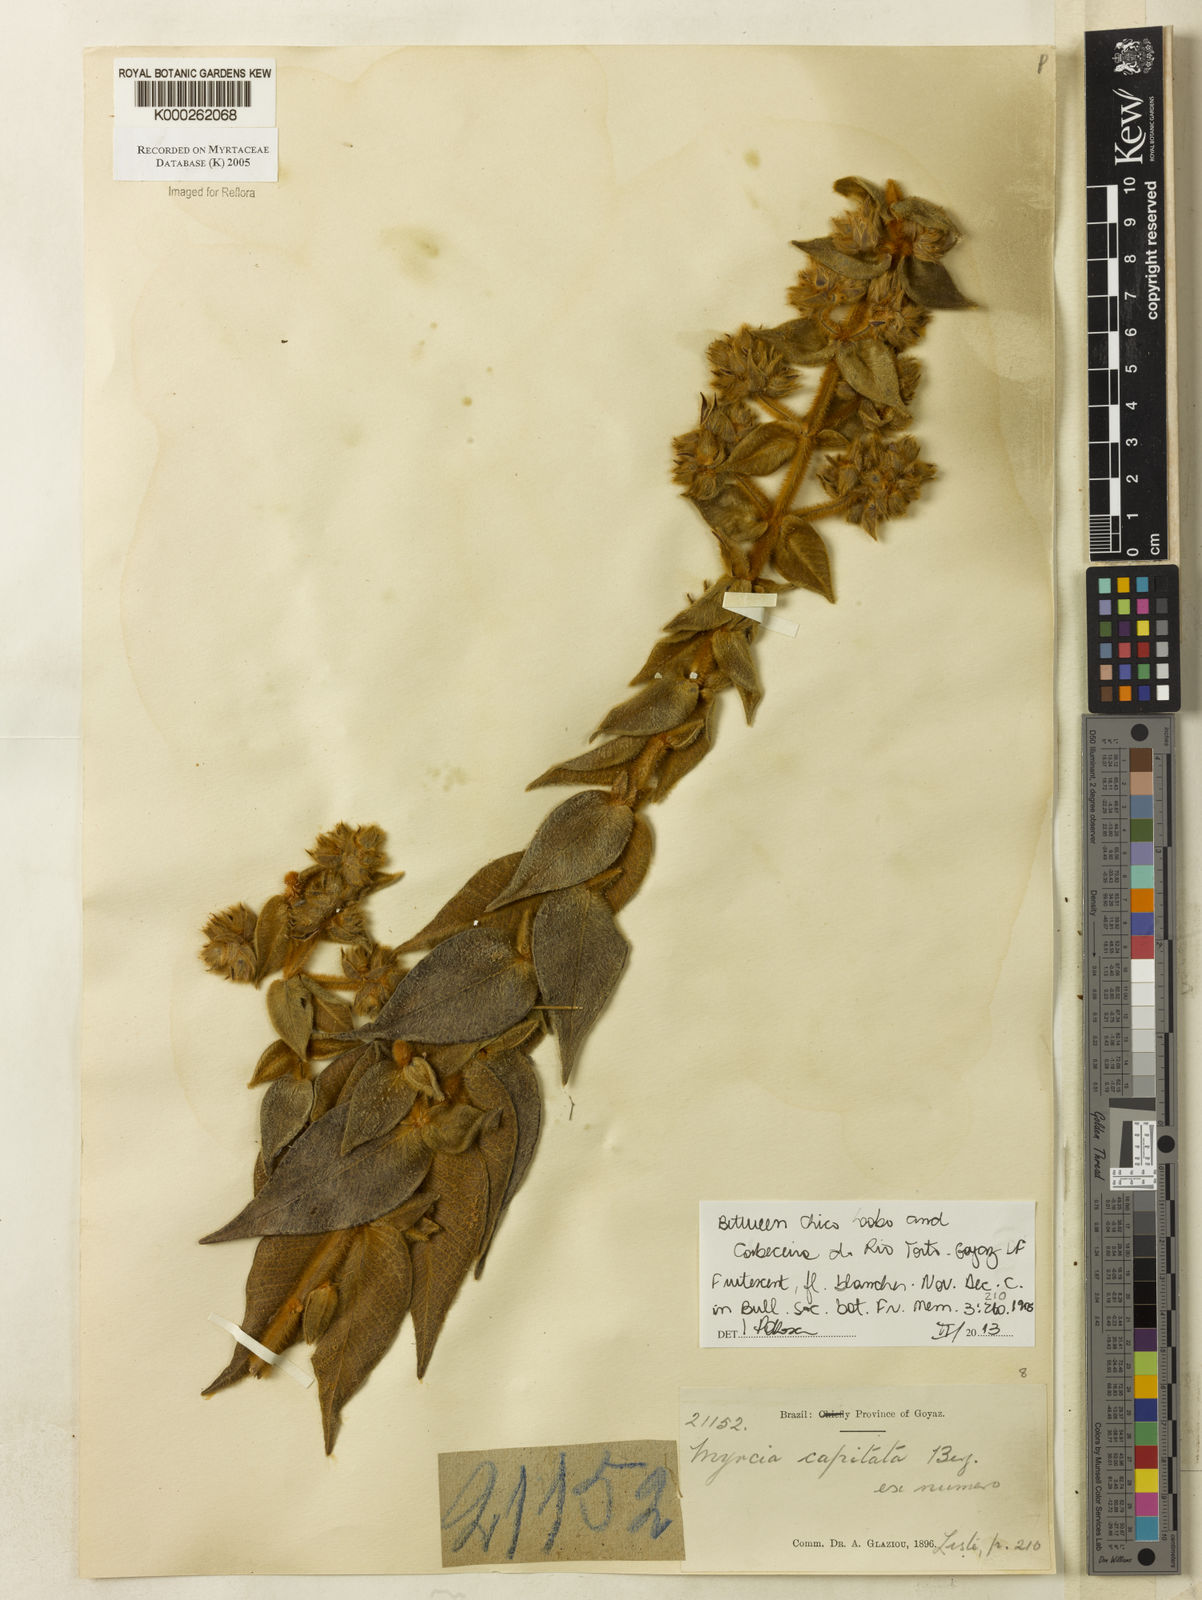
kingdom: Plantae
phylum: Tracheophyta
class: Magnoliopsida
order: Myrtales
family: Myrtaceae
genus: Myrcia
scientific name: Myrcia capitata
